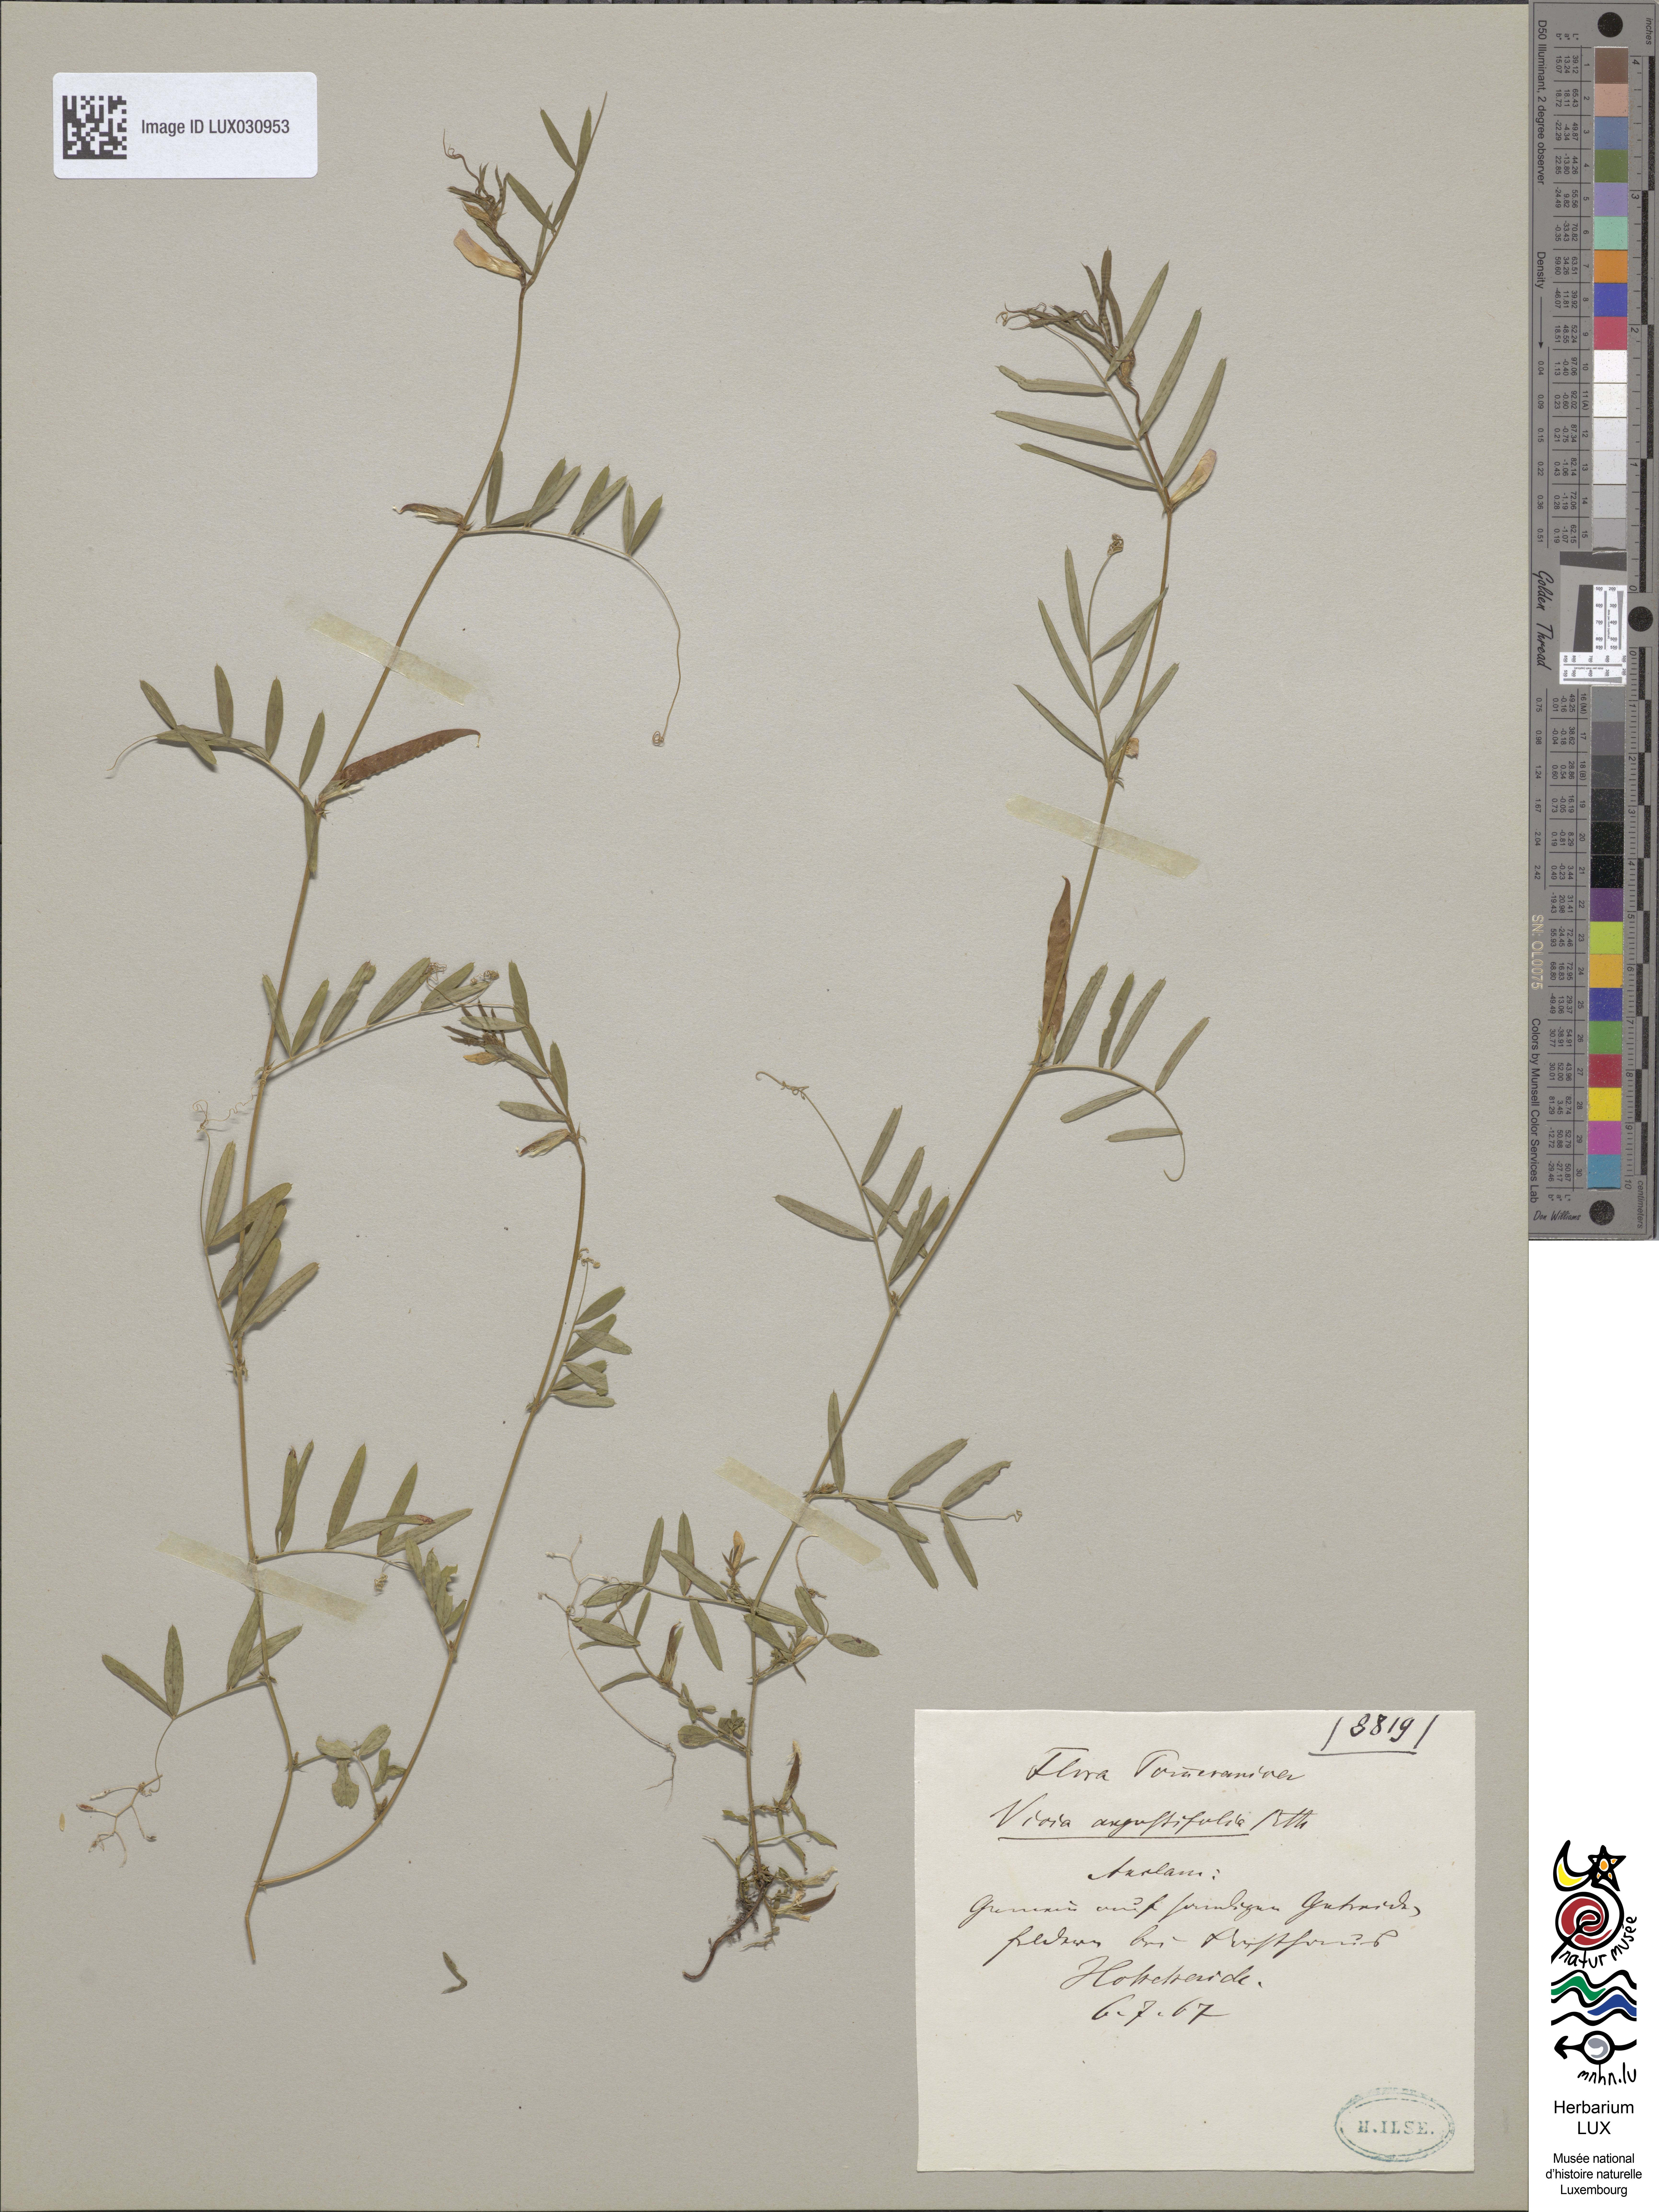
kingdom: Plantae
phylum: Tracheophyta
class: Magnoliopsida
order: Fabales
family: Fabaceae
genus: Vicia
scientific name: Vicia sativa
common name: Garden vetch
